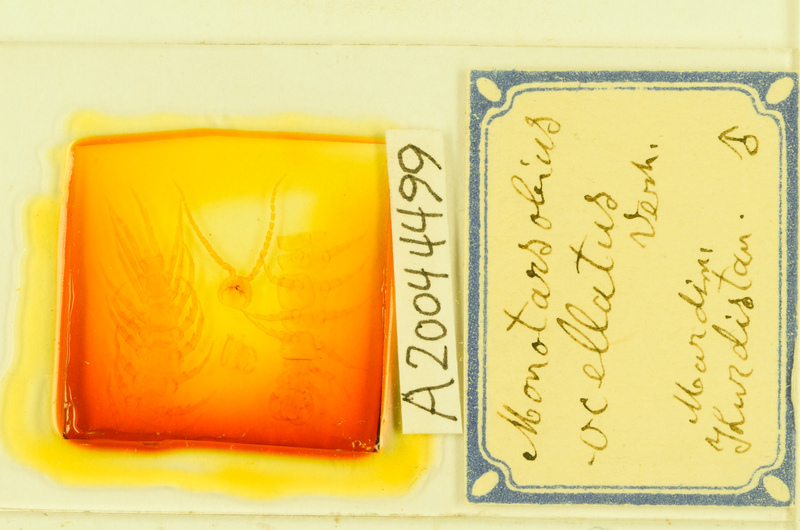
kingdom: Animalia
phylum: Arthropoda
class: Chilopoda
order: Lithobiomorpha
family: Lithobiidae
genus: Monotarsobius
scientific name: Monotarsobius
